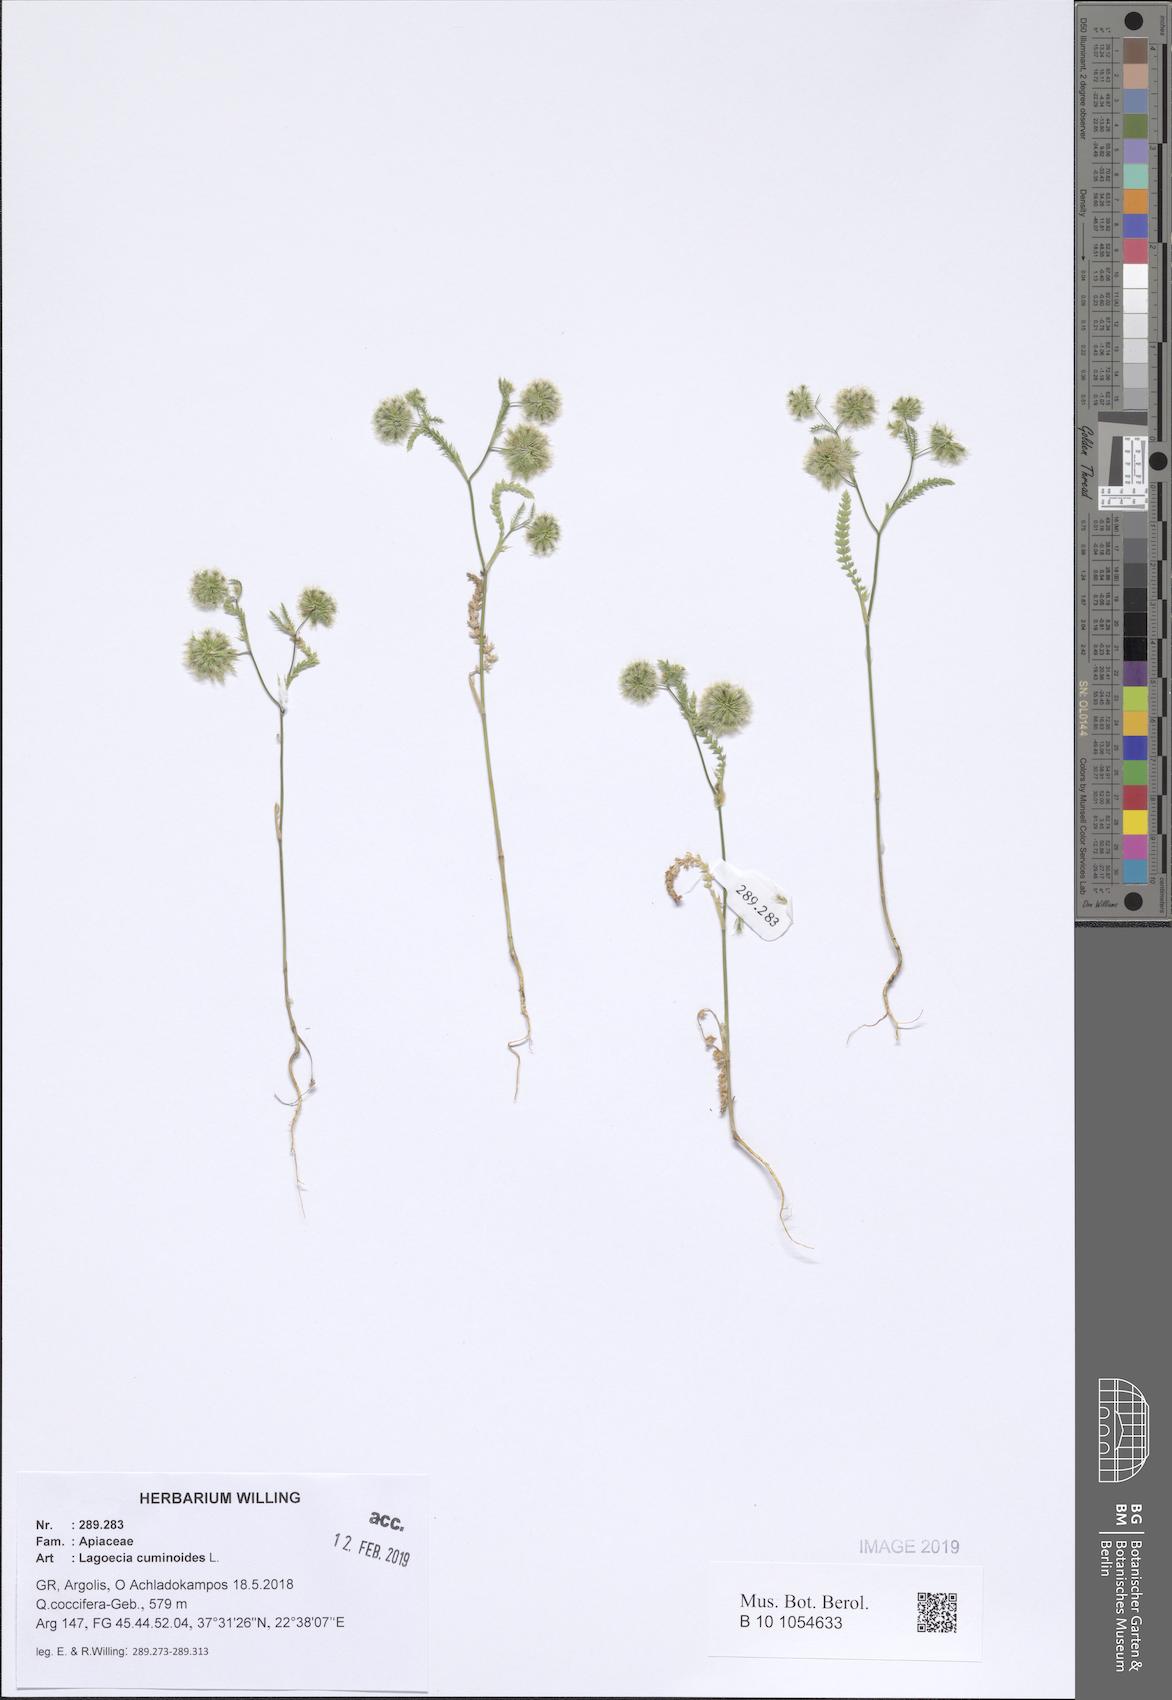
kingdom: Plantae
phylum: Tracheophyta
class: Magnoliopsida
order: Apiales
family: Apiaceae
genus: Lagoecia
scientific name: Lagoecia cuminoides
